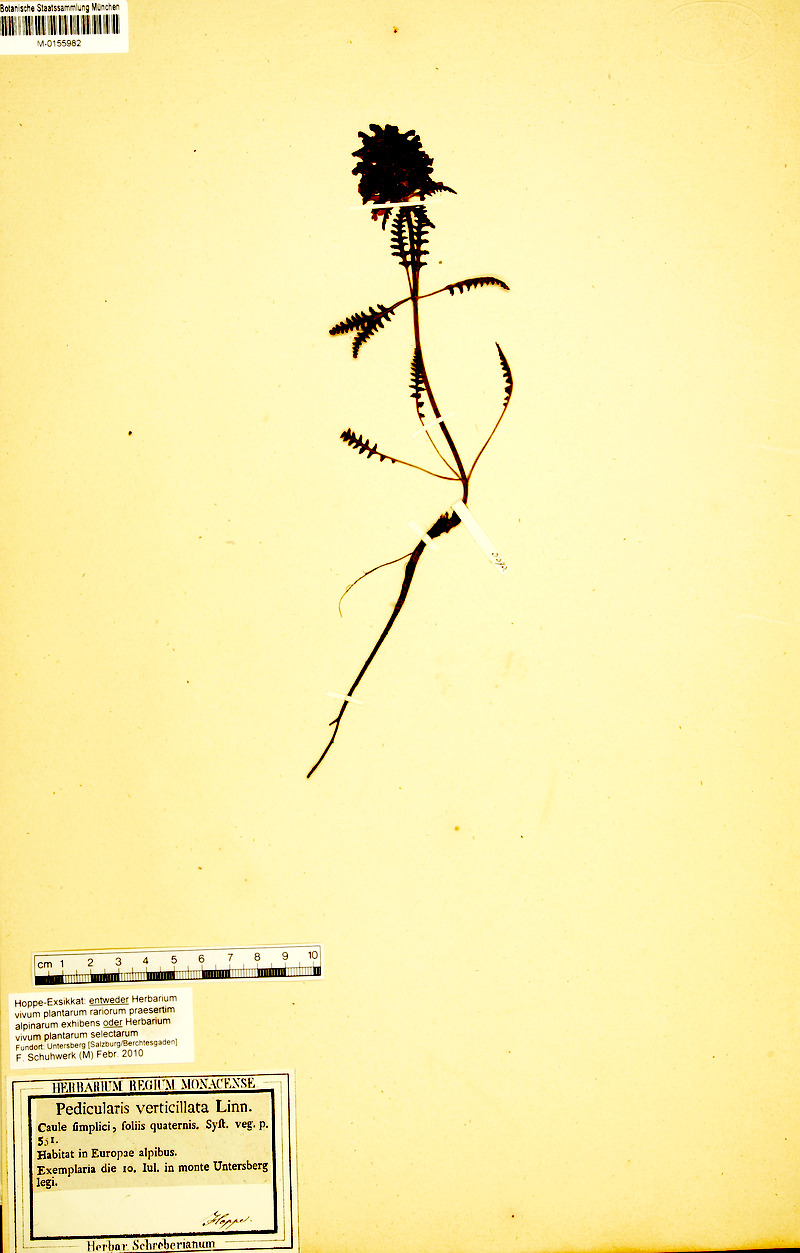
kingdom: Plantae
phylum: Tracheophyta
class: Magnoliopsida
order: Lamiales
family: Orobanchaceae
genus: Pedicularis
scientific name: Pedicularis verticillata
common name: Whorled lousewort
